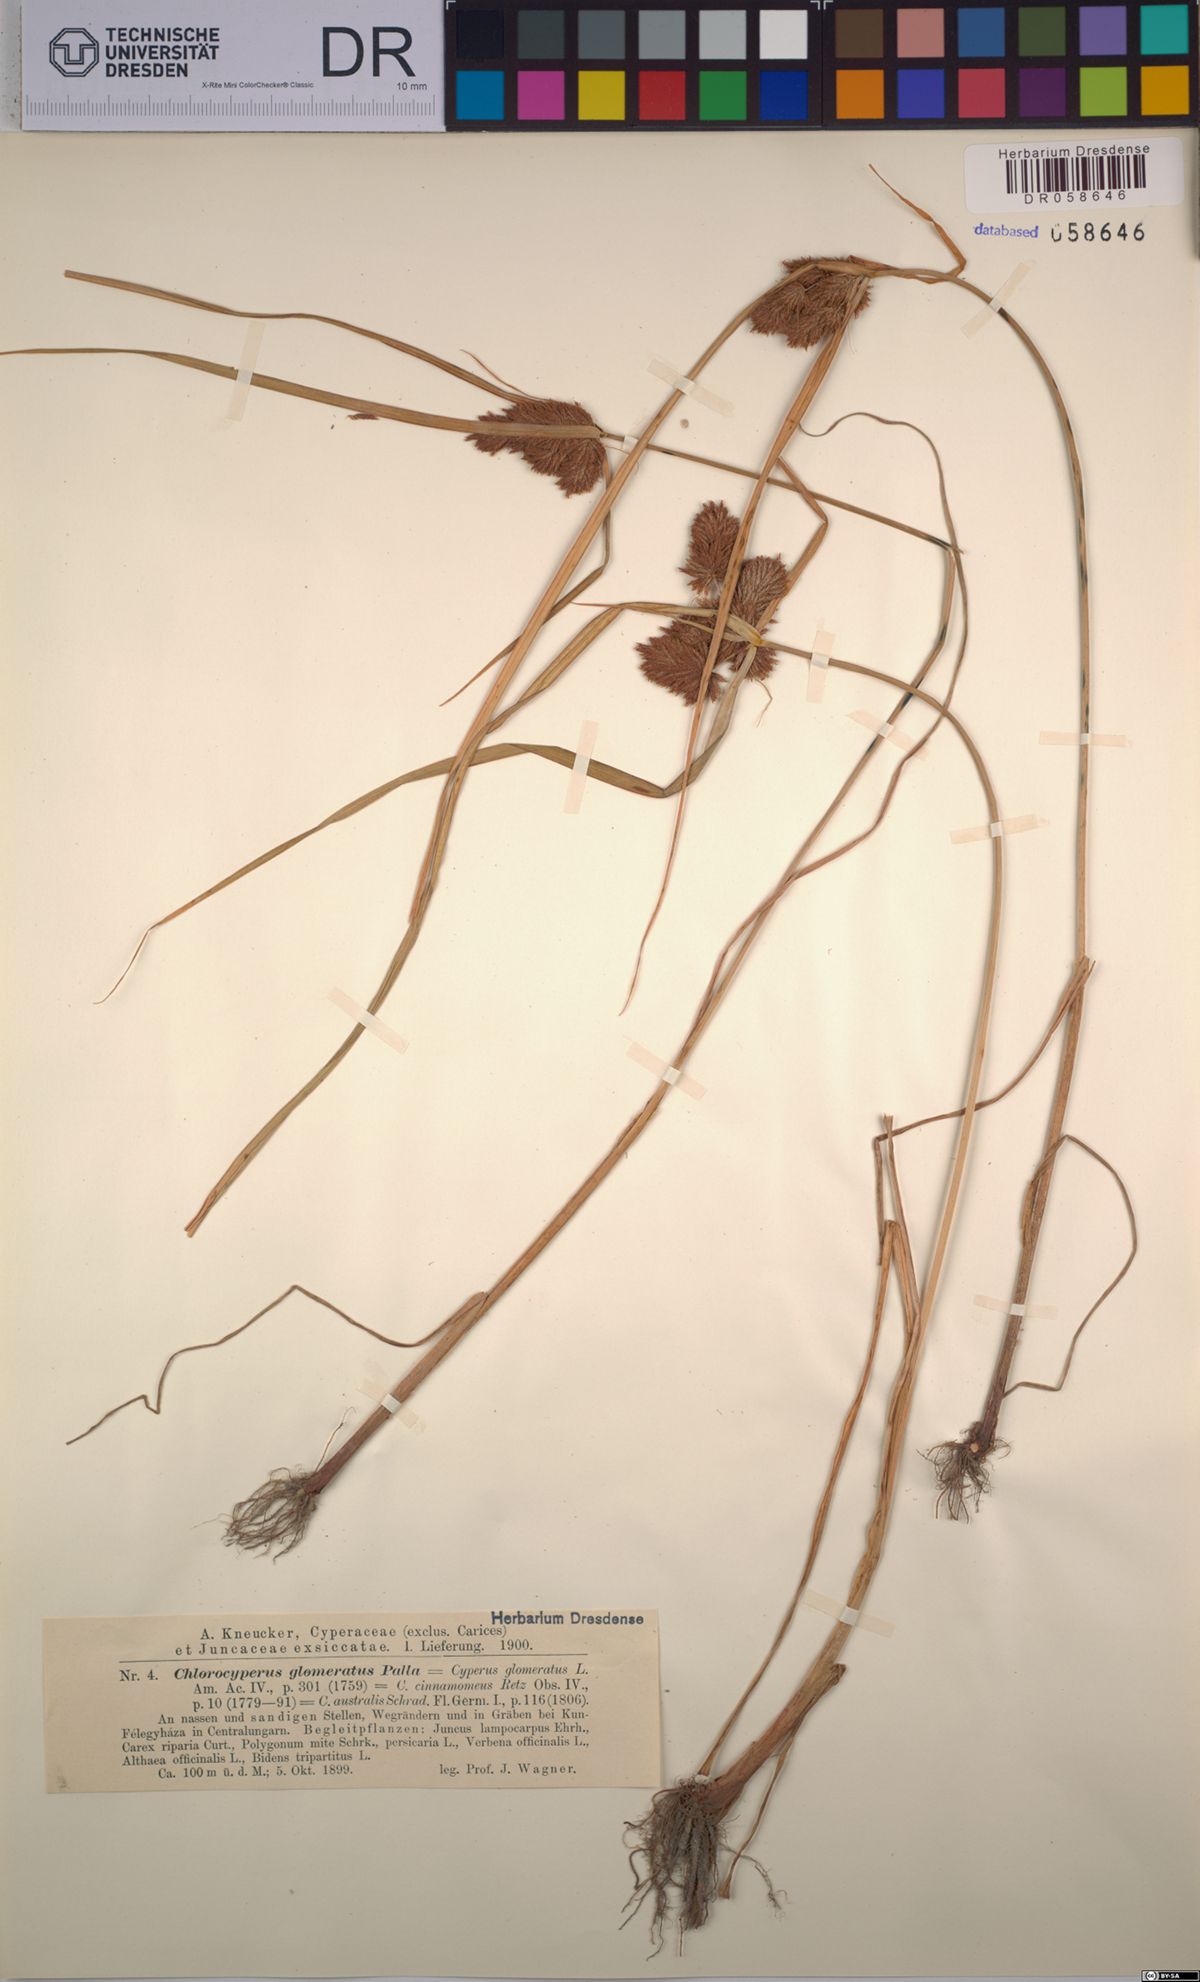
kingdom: Plantae
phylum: Tracheophyta
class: Liliopsida
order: Poales
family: Cyperaceae
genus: Cyperus
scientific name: Cyperus glomeratus
